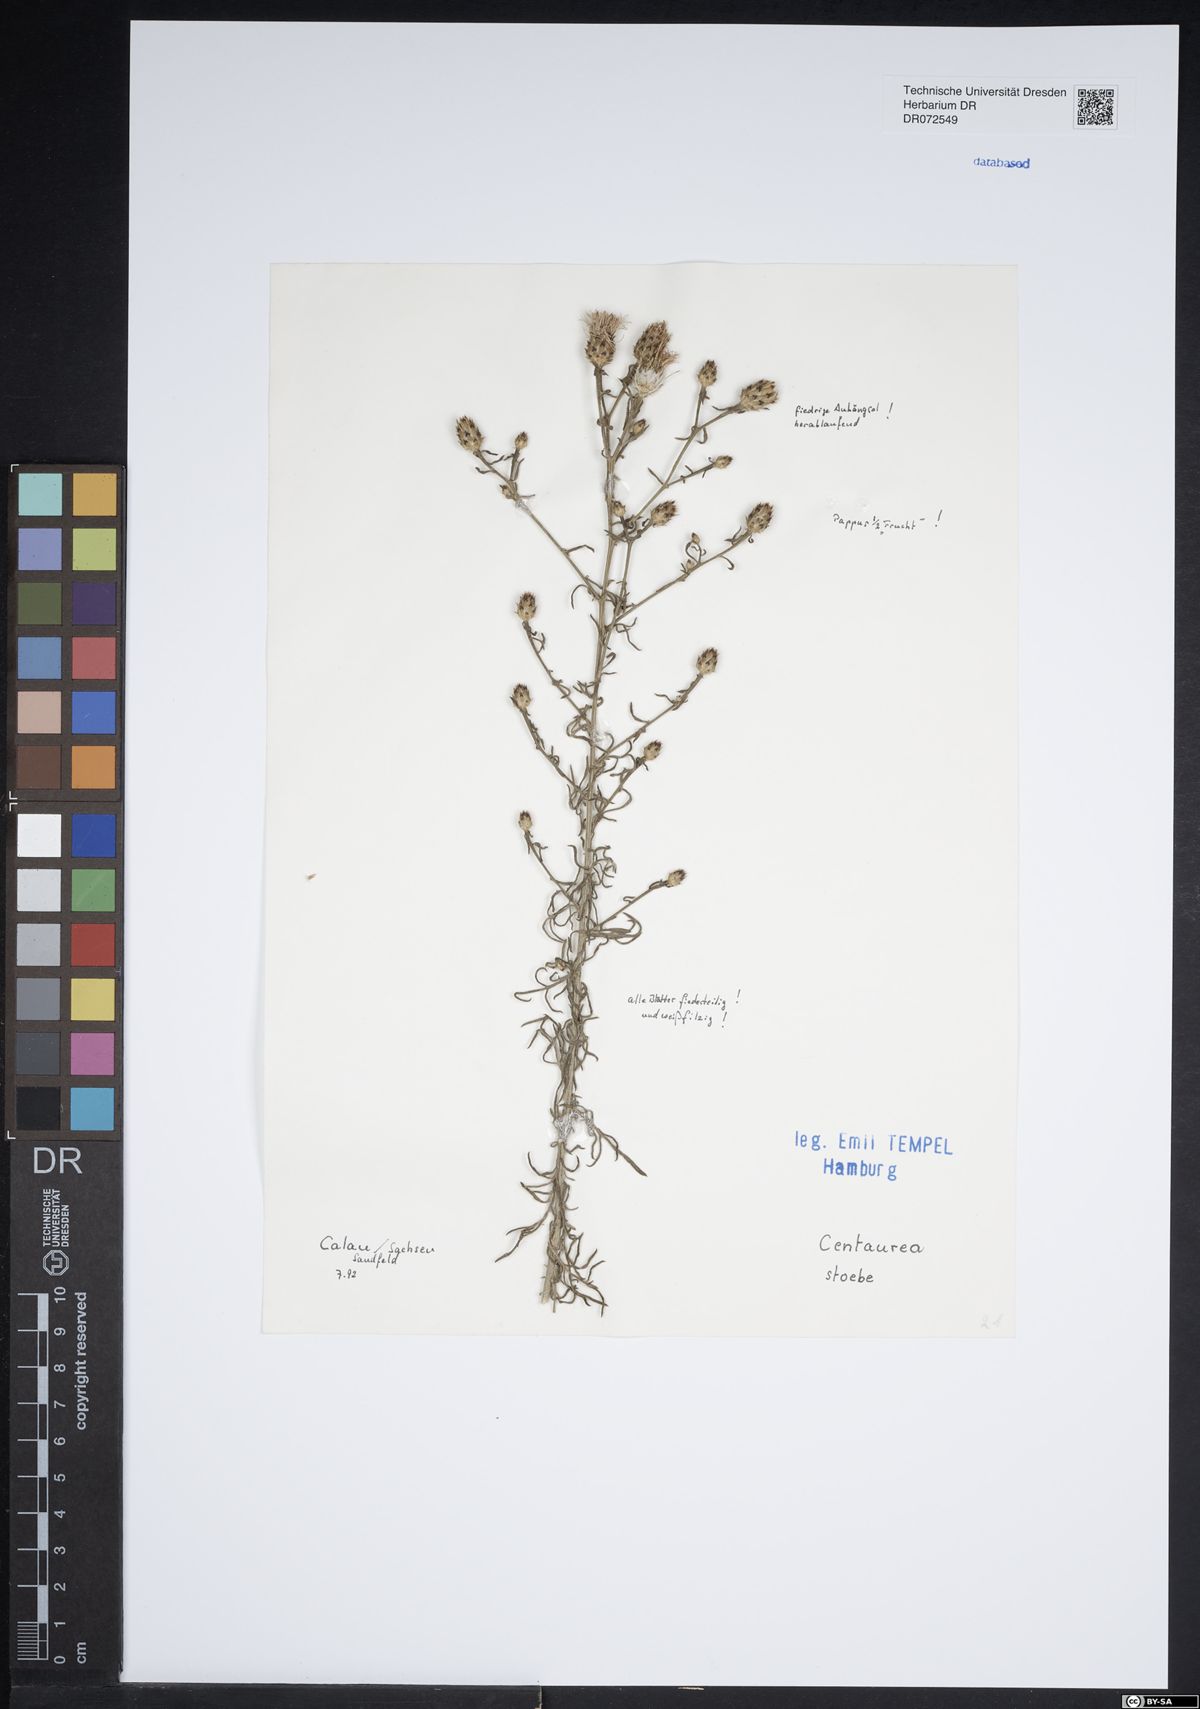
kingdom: Plantae
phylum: Tracheophyta
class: Magnoliopsida
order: Asterales
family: Asteraceae
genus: Centaurea
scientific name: Centaurea stoebe
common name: Spotted knapweed
